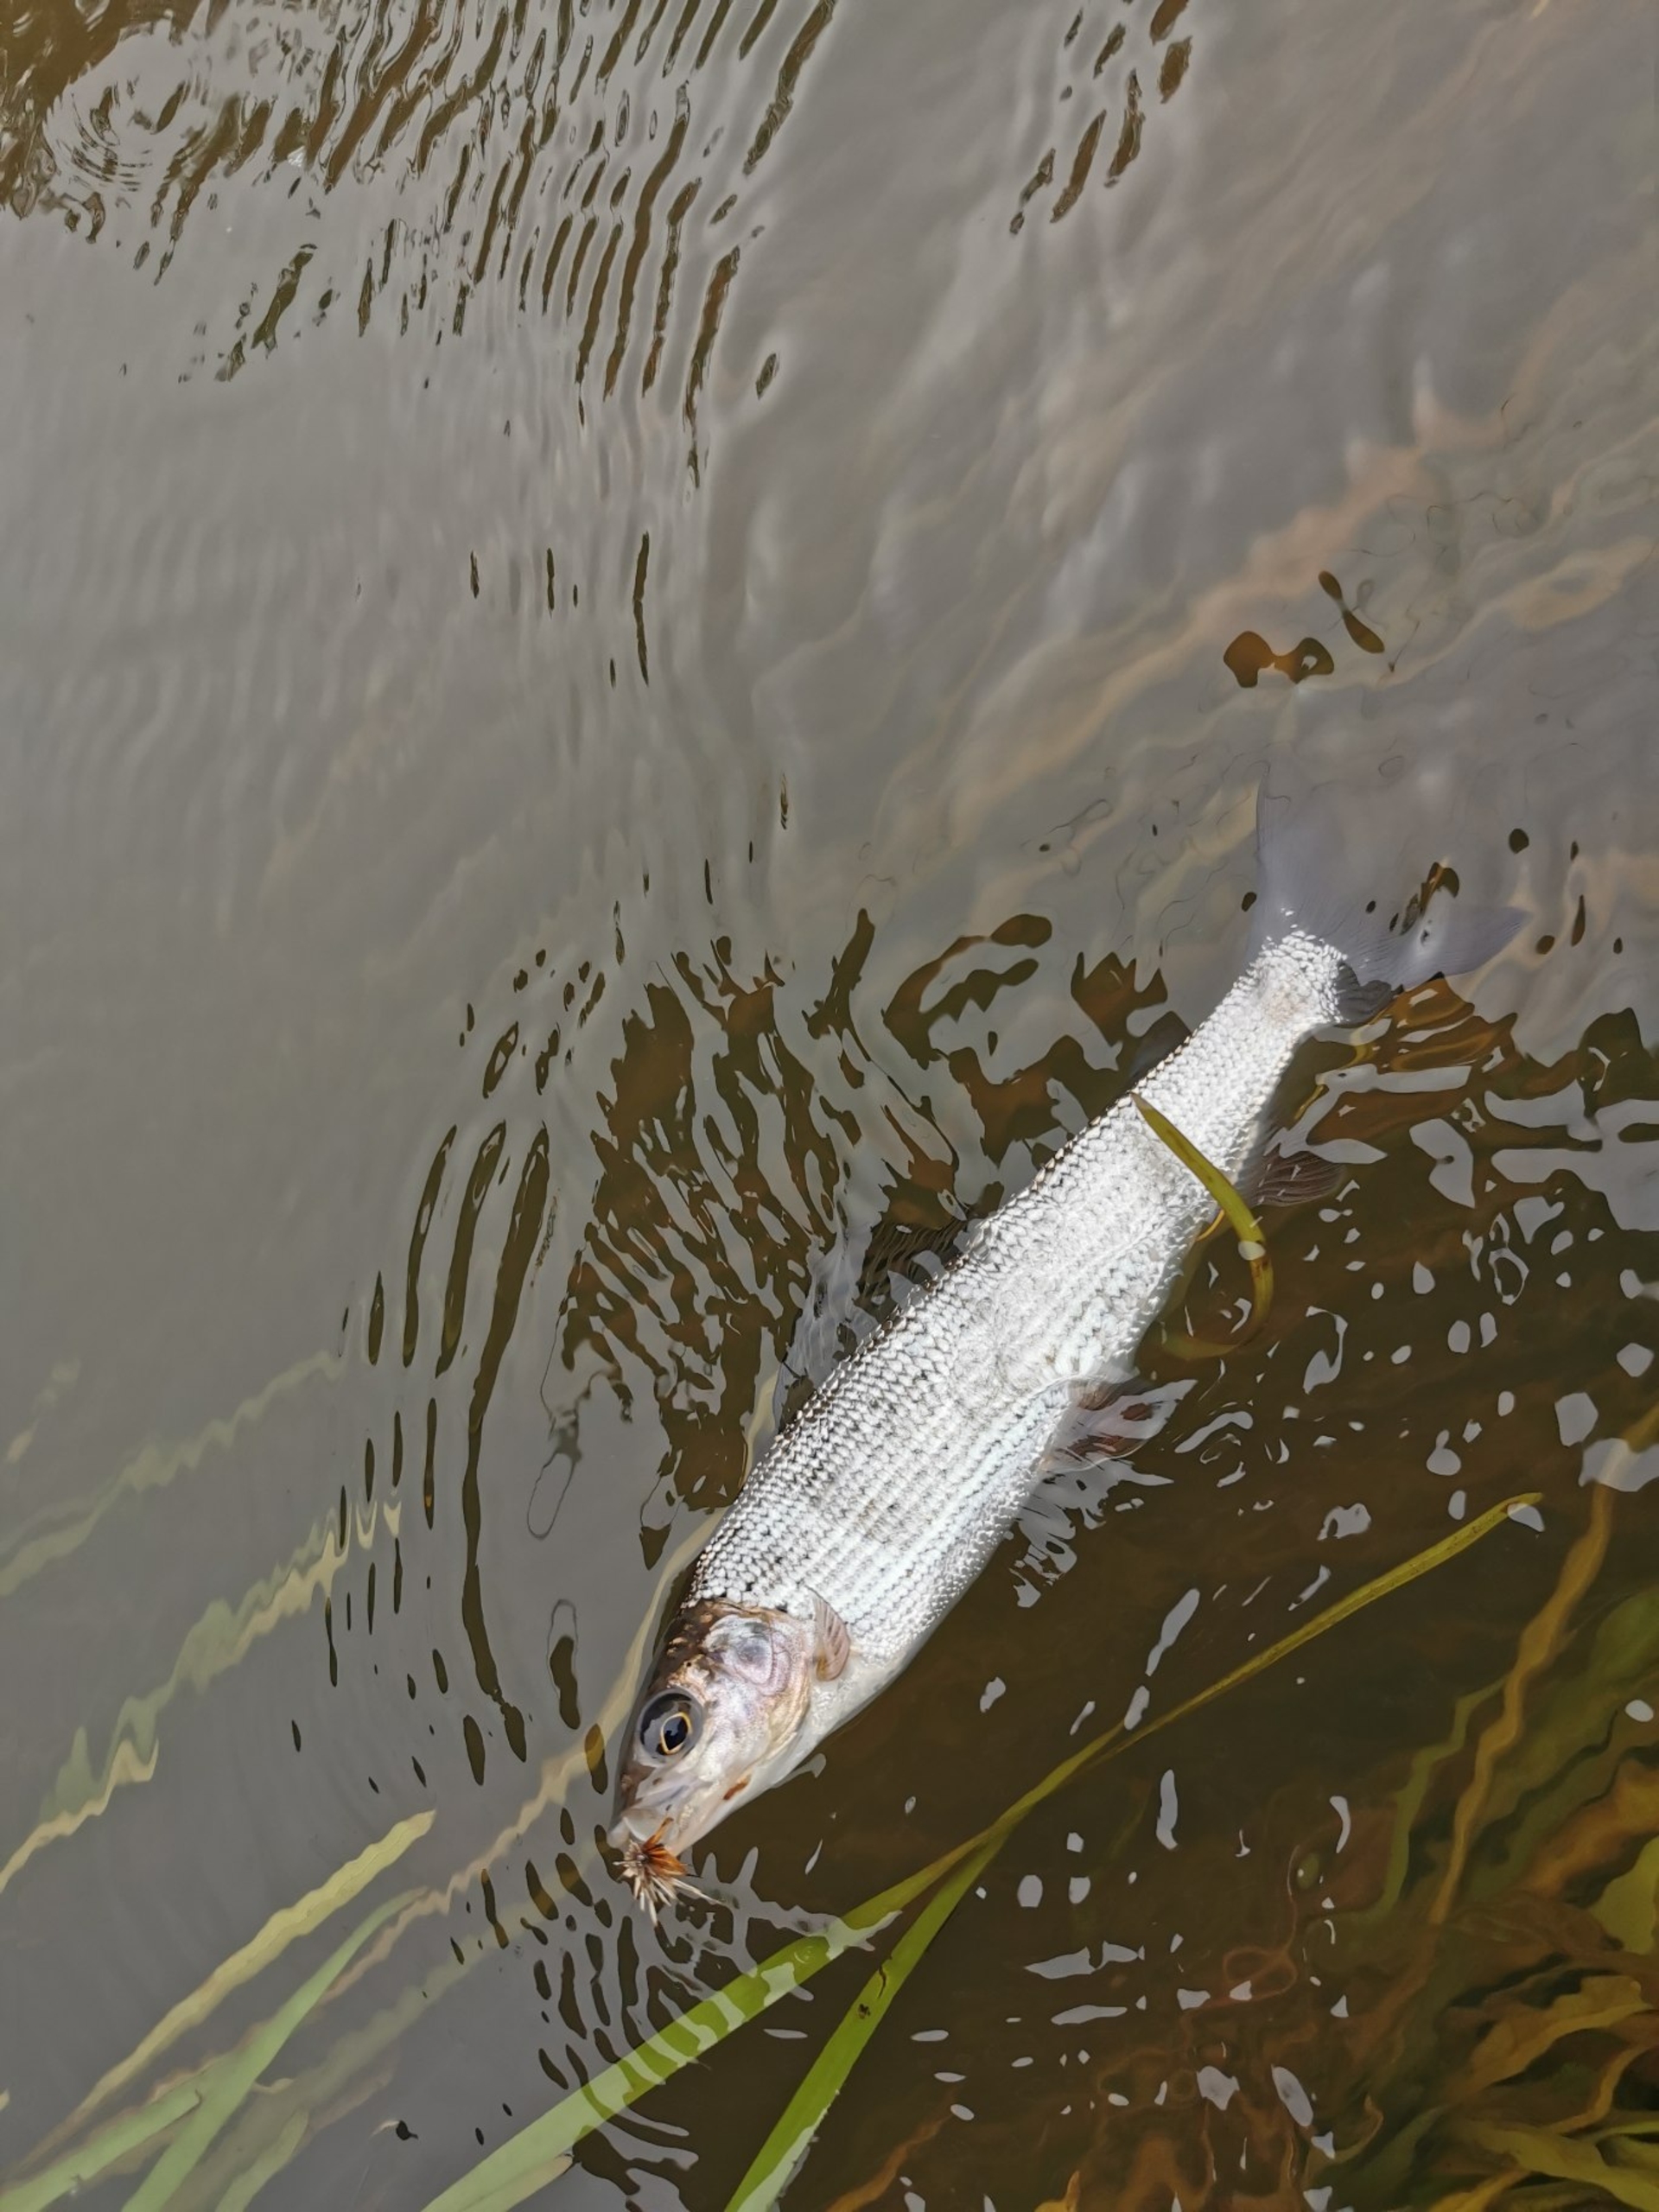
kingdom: Animalia
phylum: Chordata
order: Salmoniformes
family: Salmonidae
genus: Thymallus
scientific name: Thymallus thymallus
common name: Stalling
